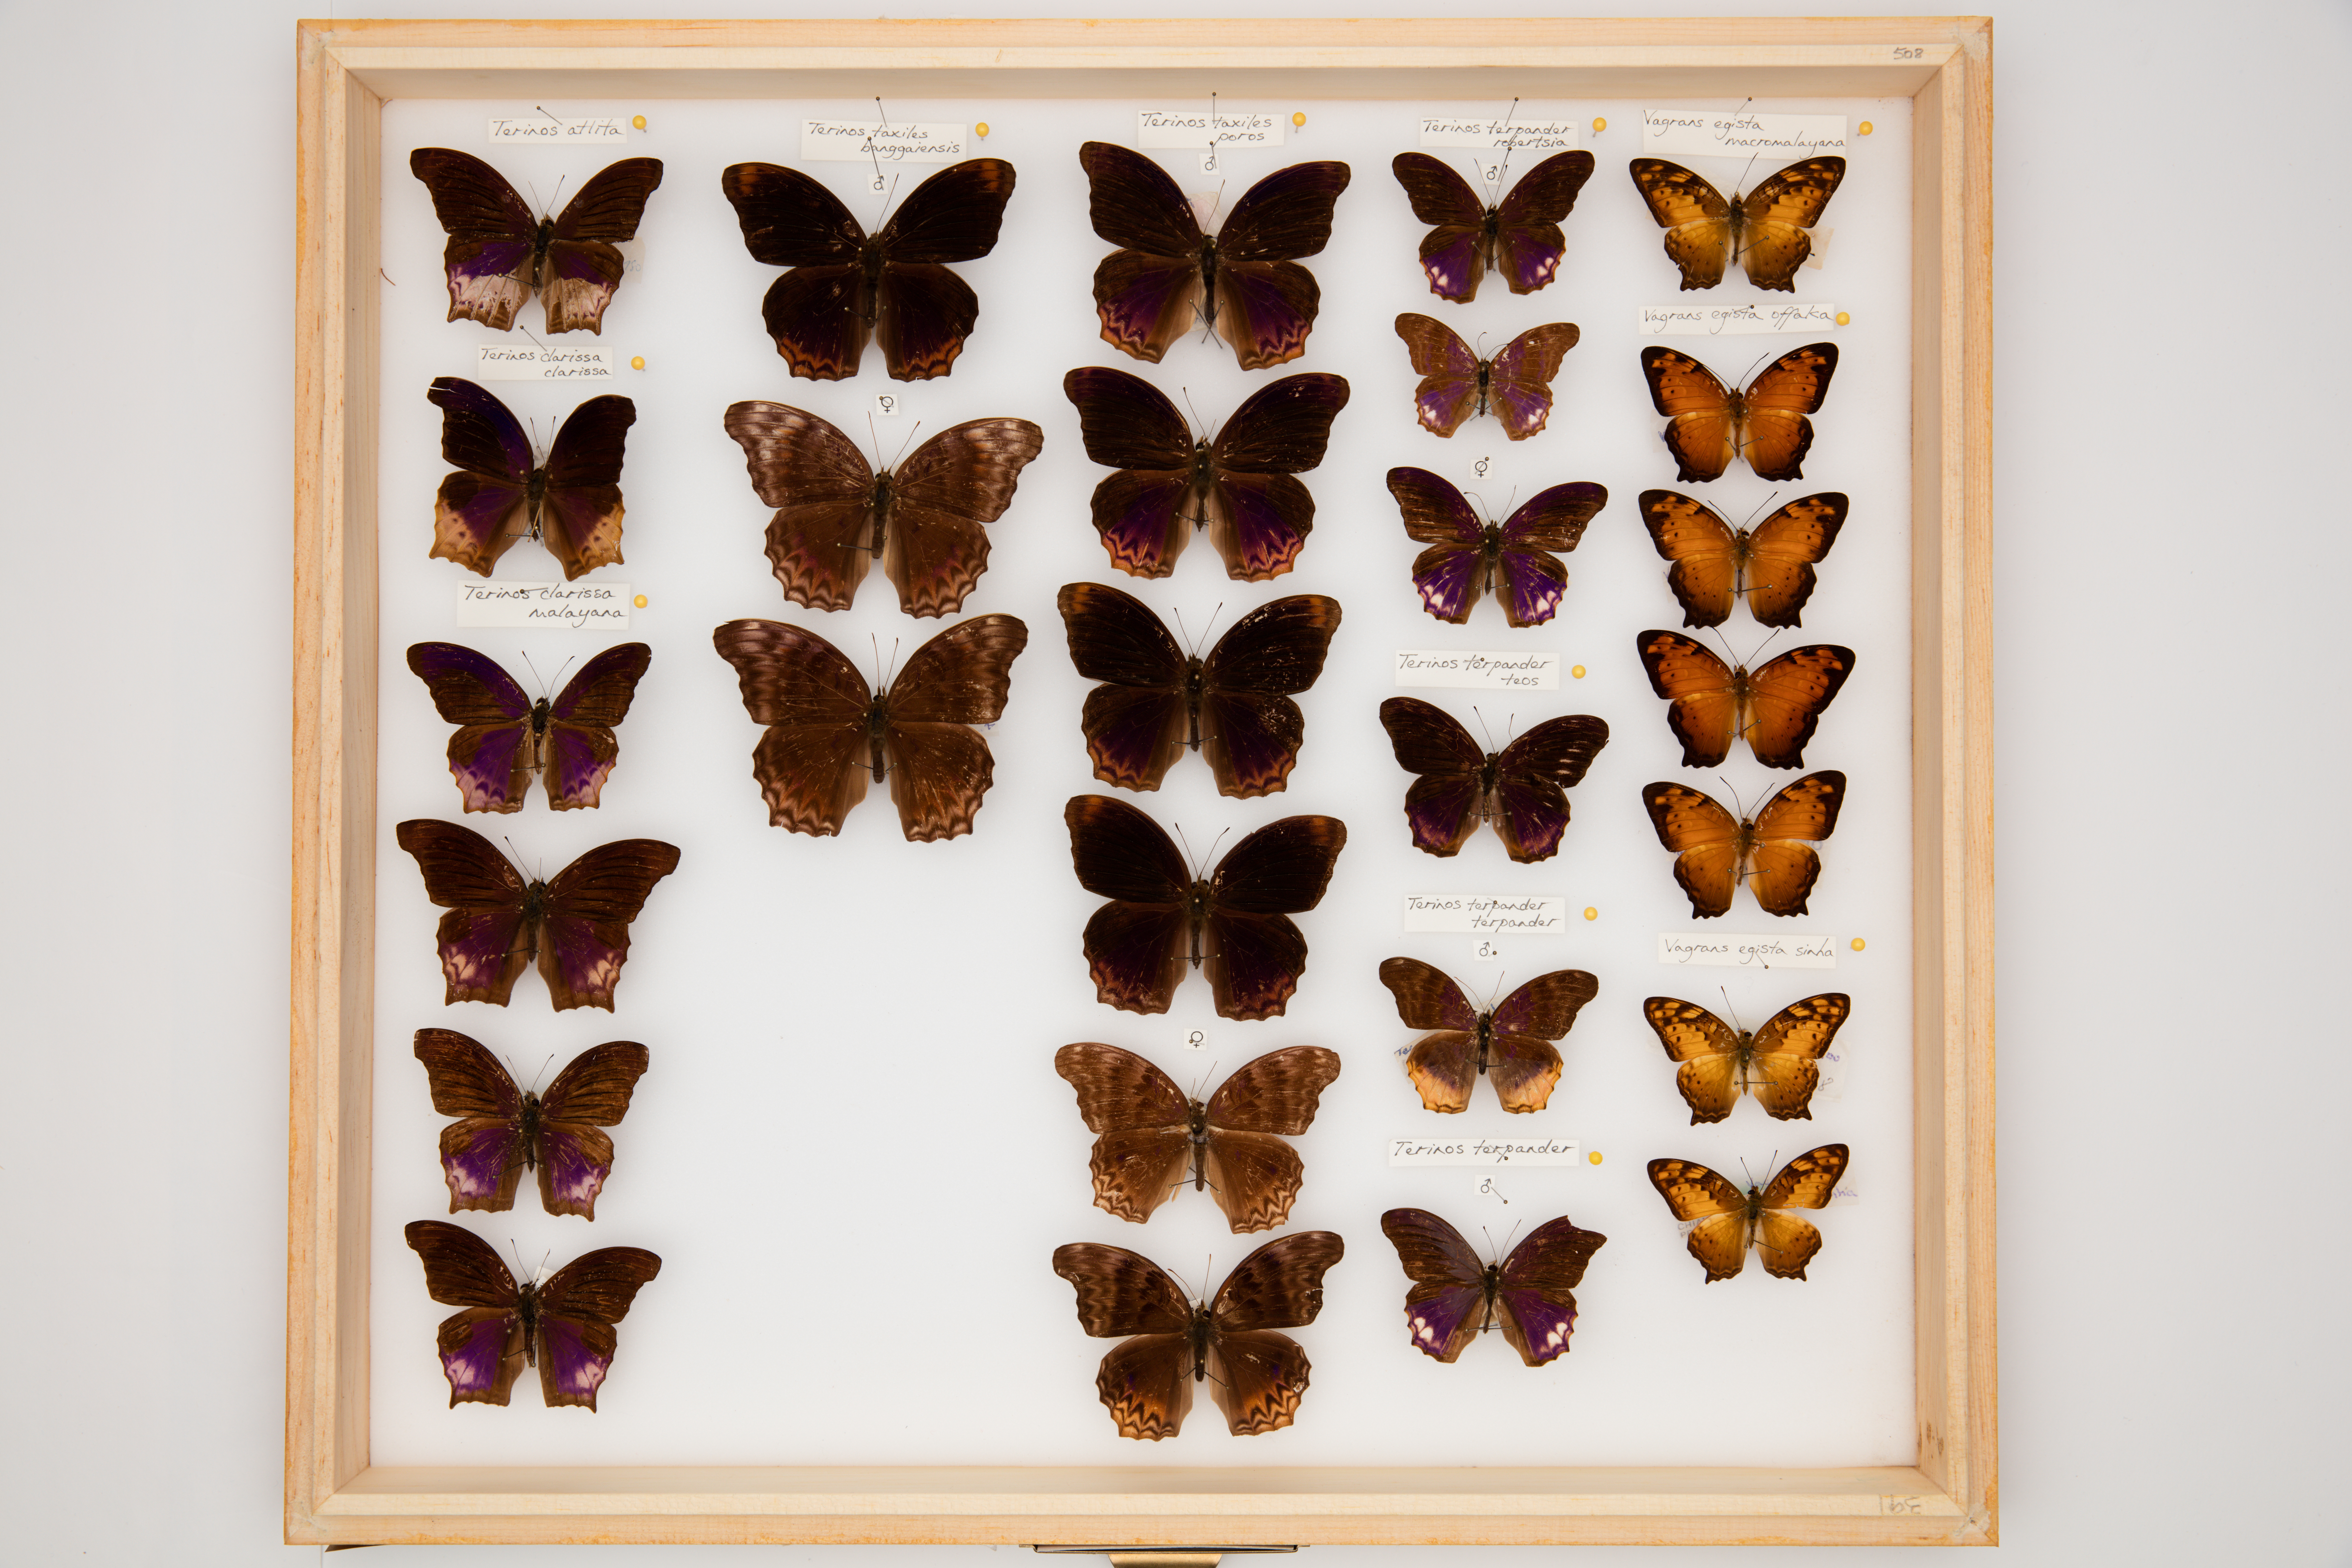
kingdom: Animalia
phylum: Arthropoda
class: Insecta
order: Lepidoptera
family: Nymphalidae
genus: Terinos
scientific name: Terinos taxiles
